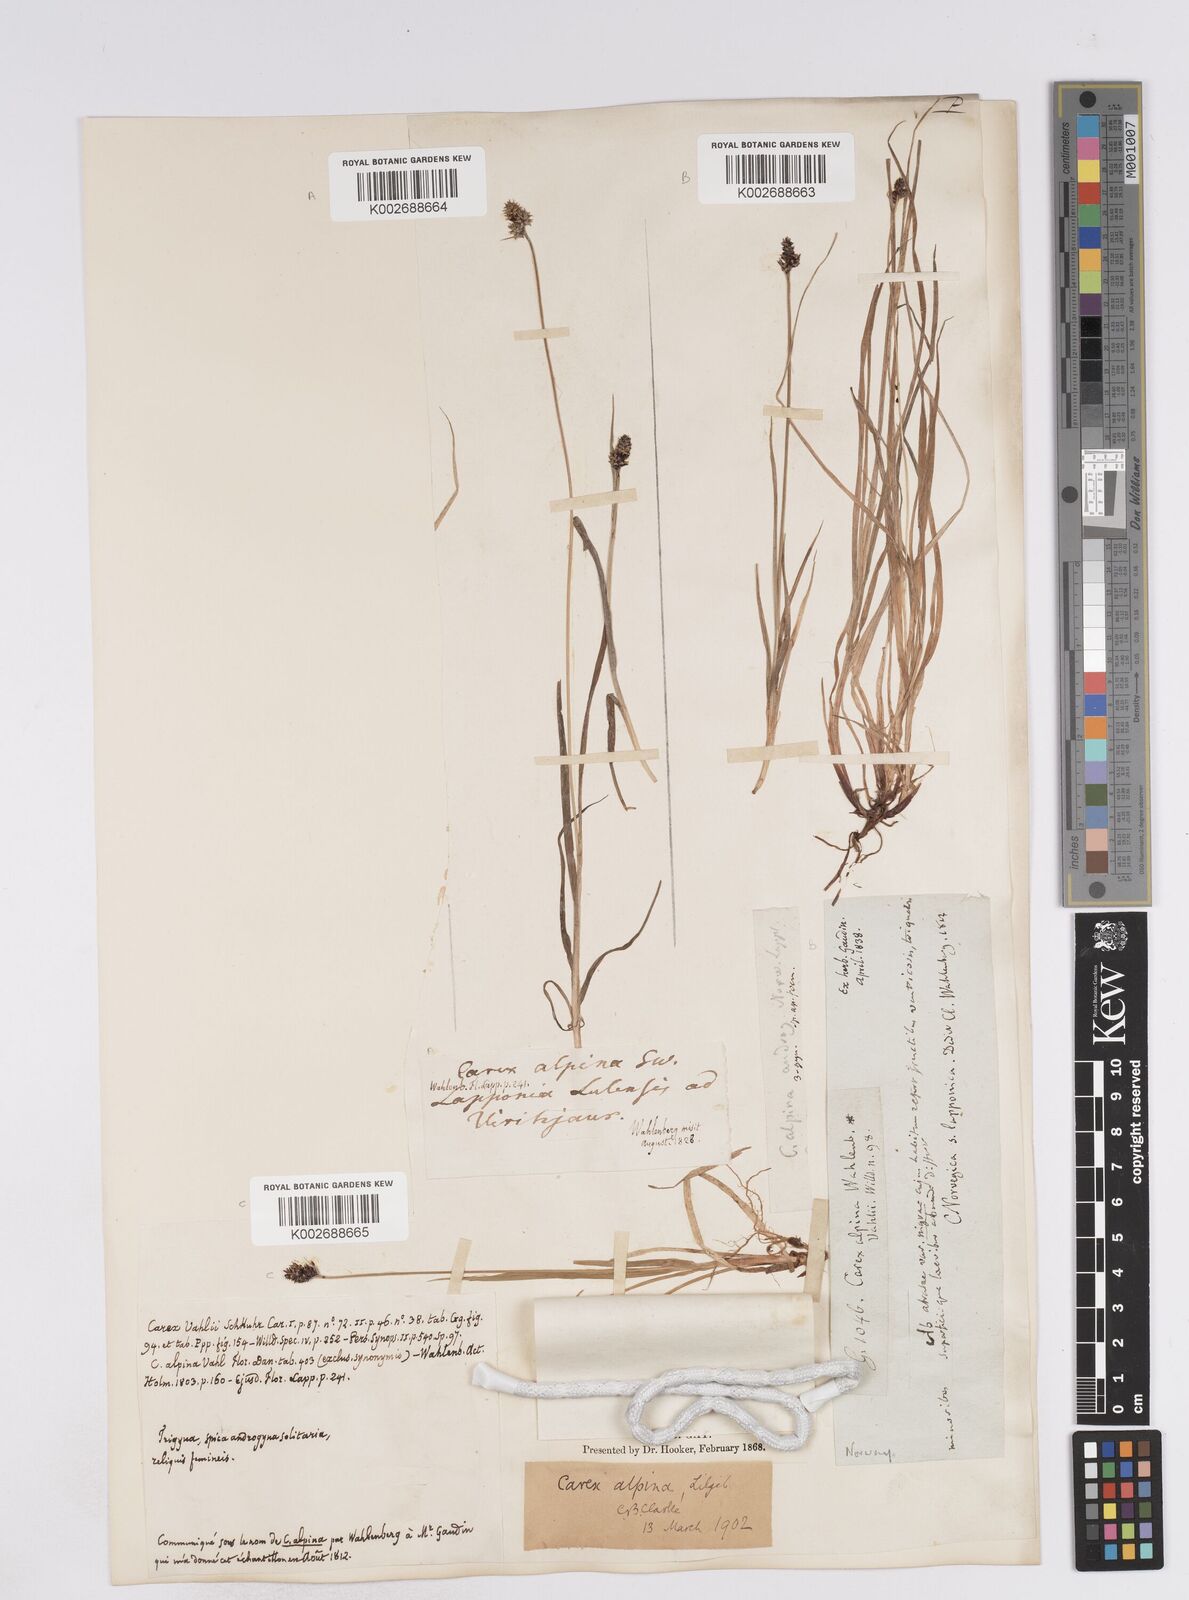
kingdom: Plantae
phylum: Tracheophyta
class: Liliopsida
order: Poales
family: Cyperaceae
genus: Carex
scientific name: Carex media
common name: Alpine sedge
